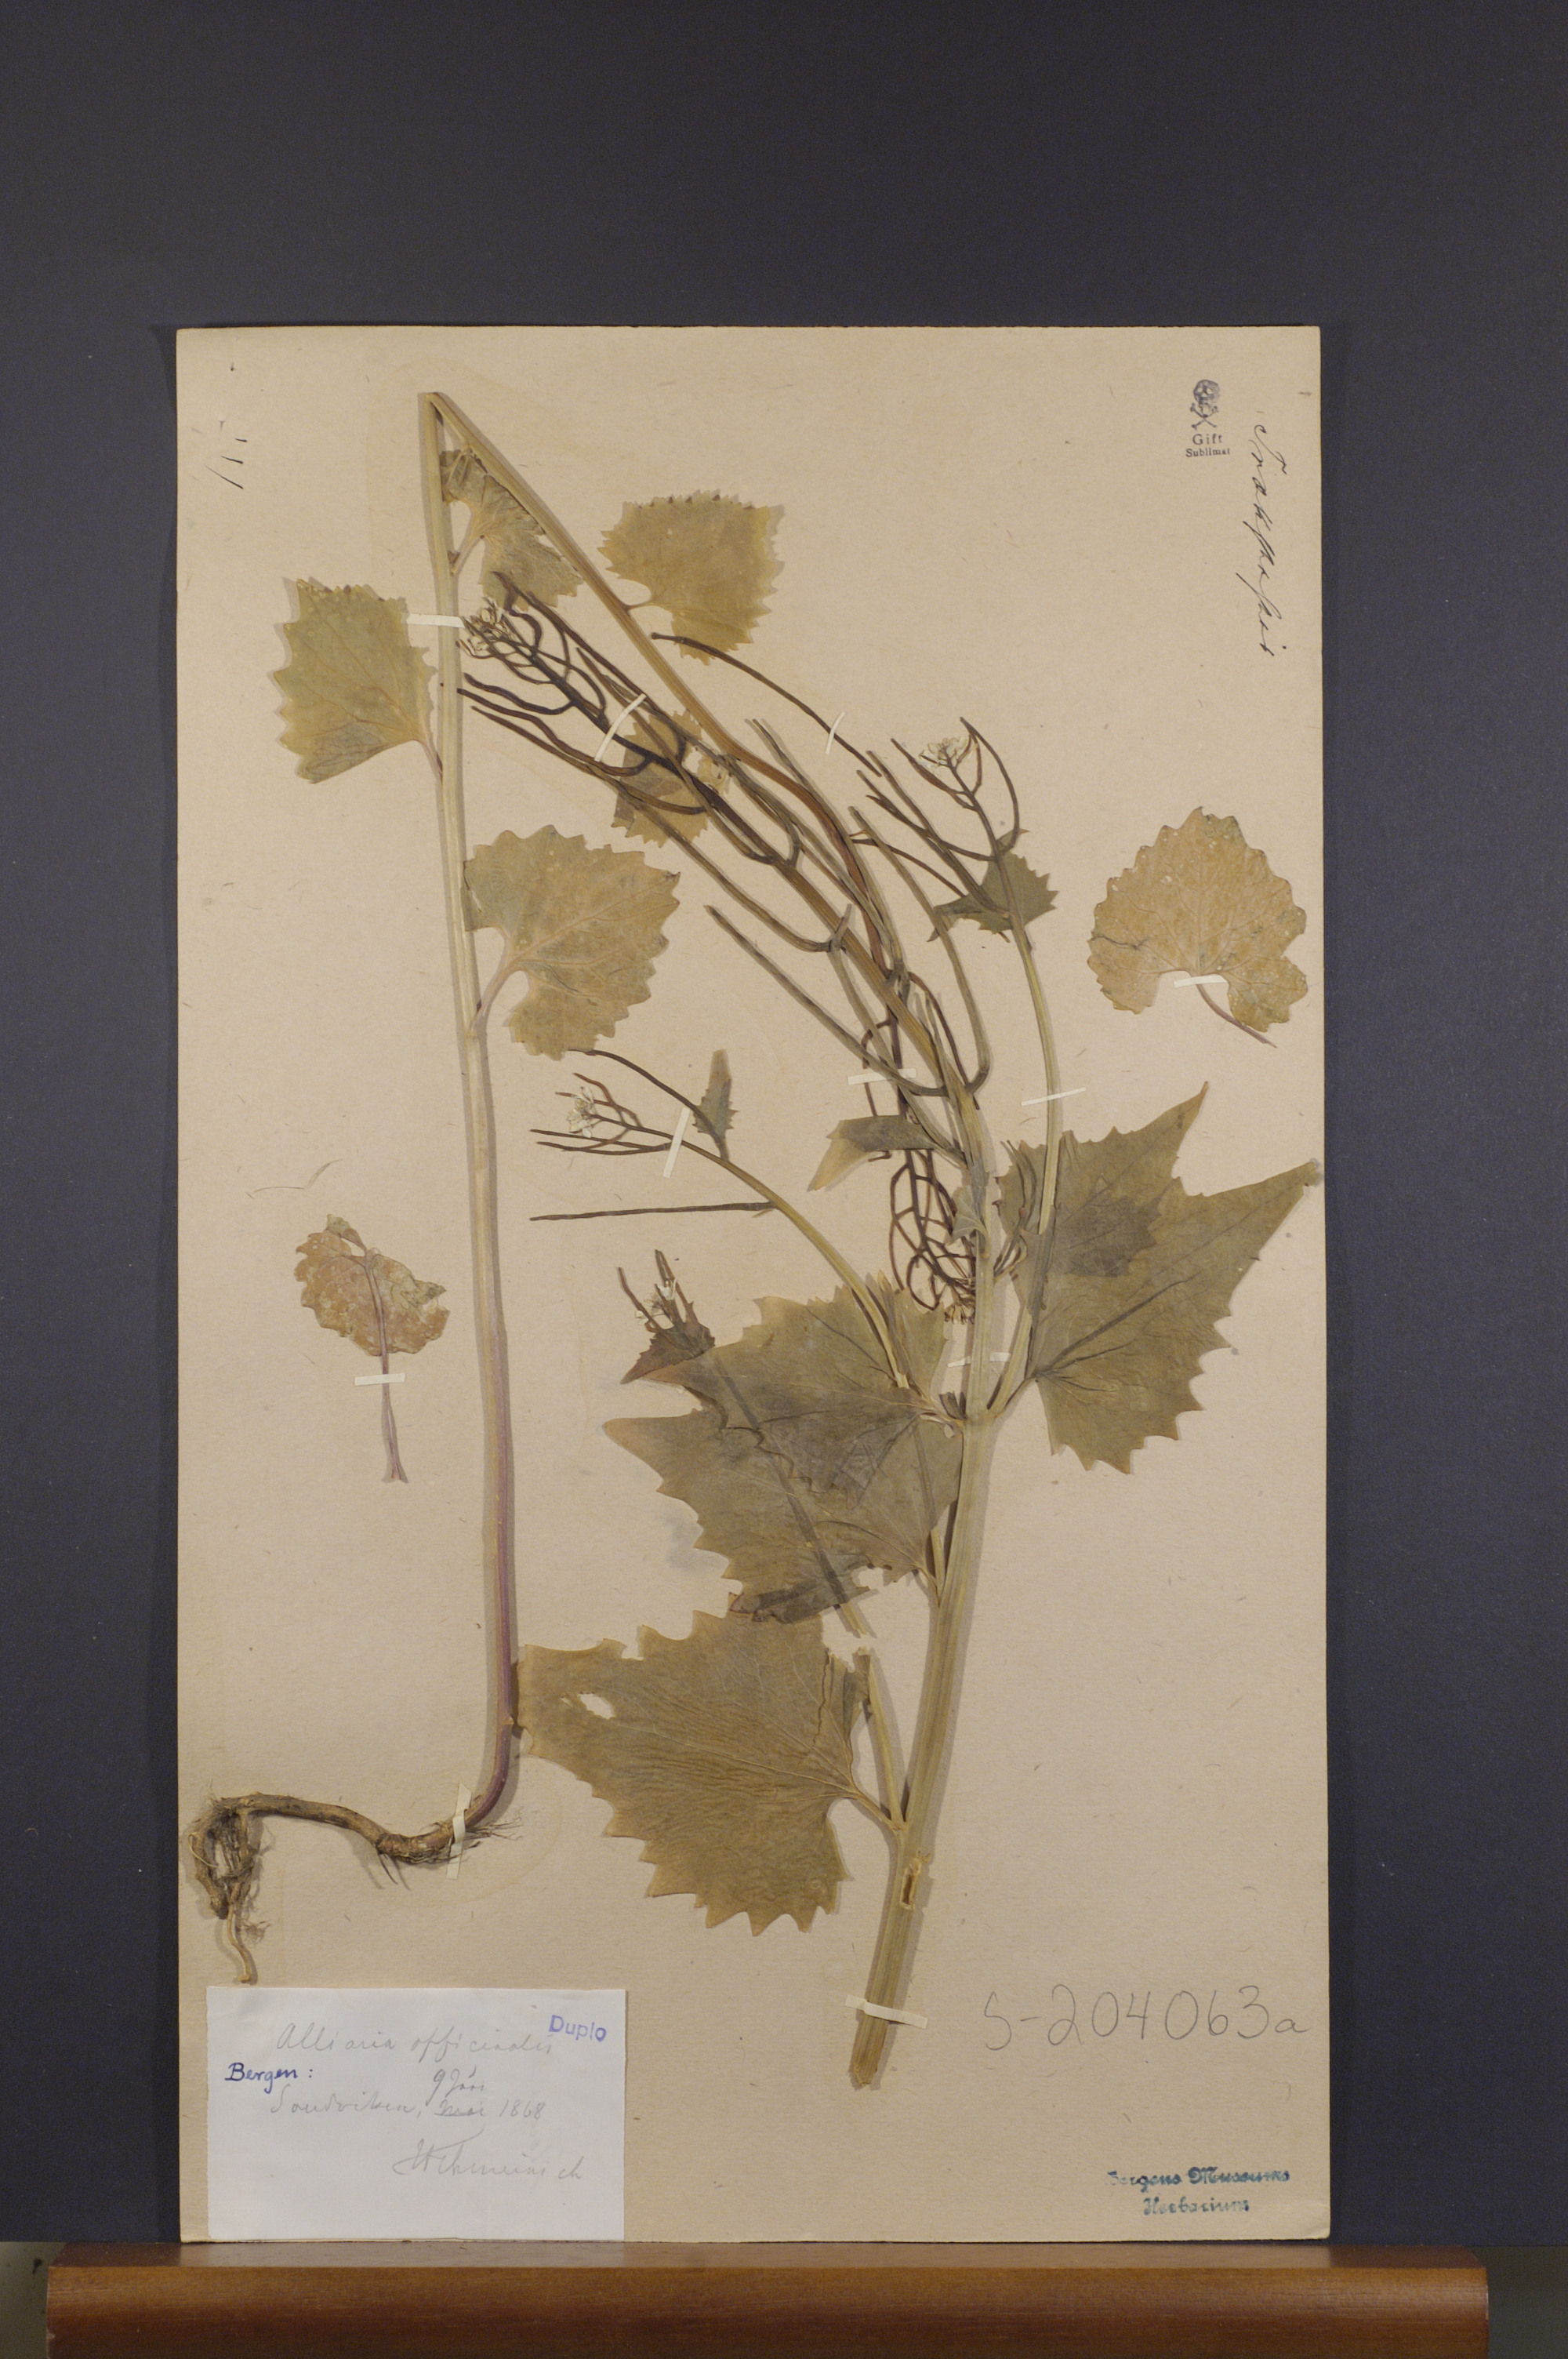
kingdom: Plantae
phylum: Tracheophyta
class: Magnoliopsida
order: Brassicales
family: Brassicaceae
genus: Alliaria
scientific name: Alliaria petiolata
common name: Garlic mustard
